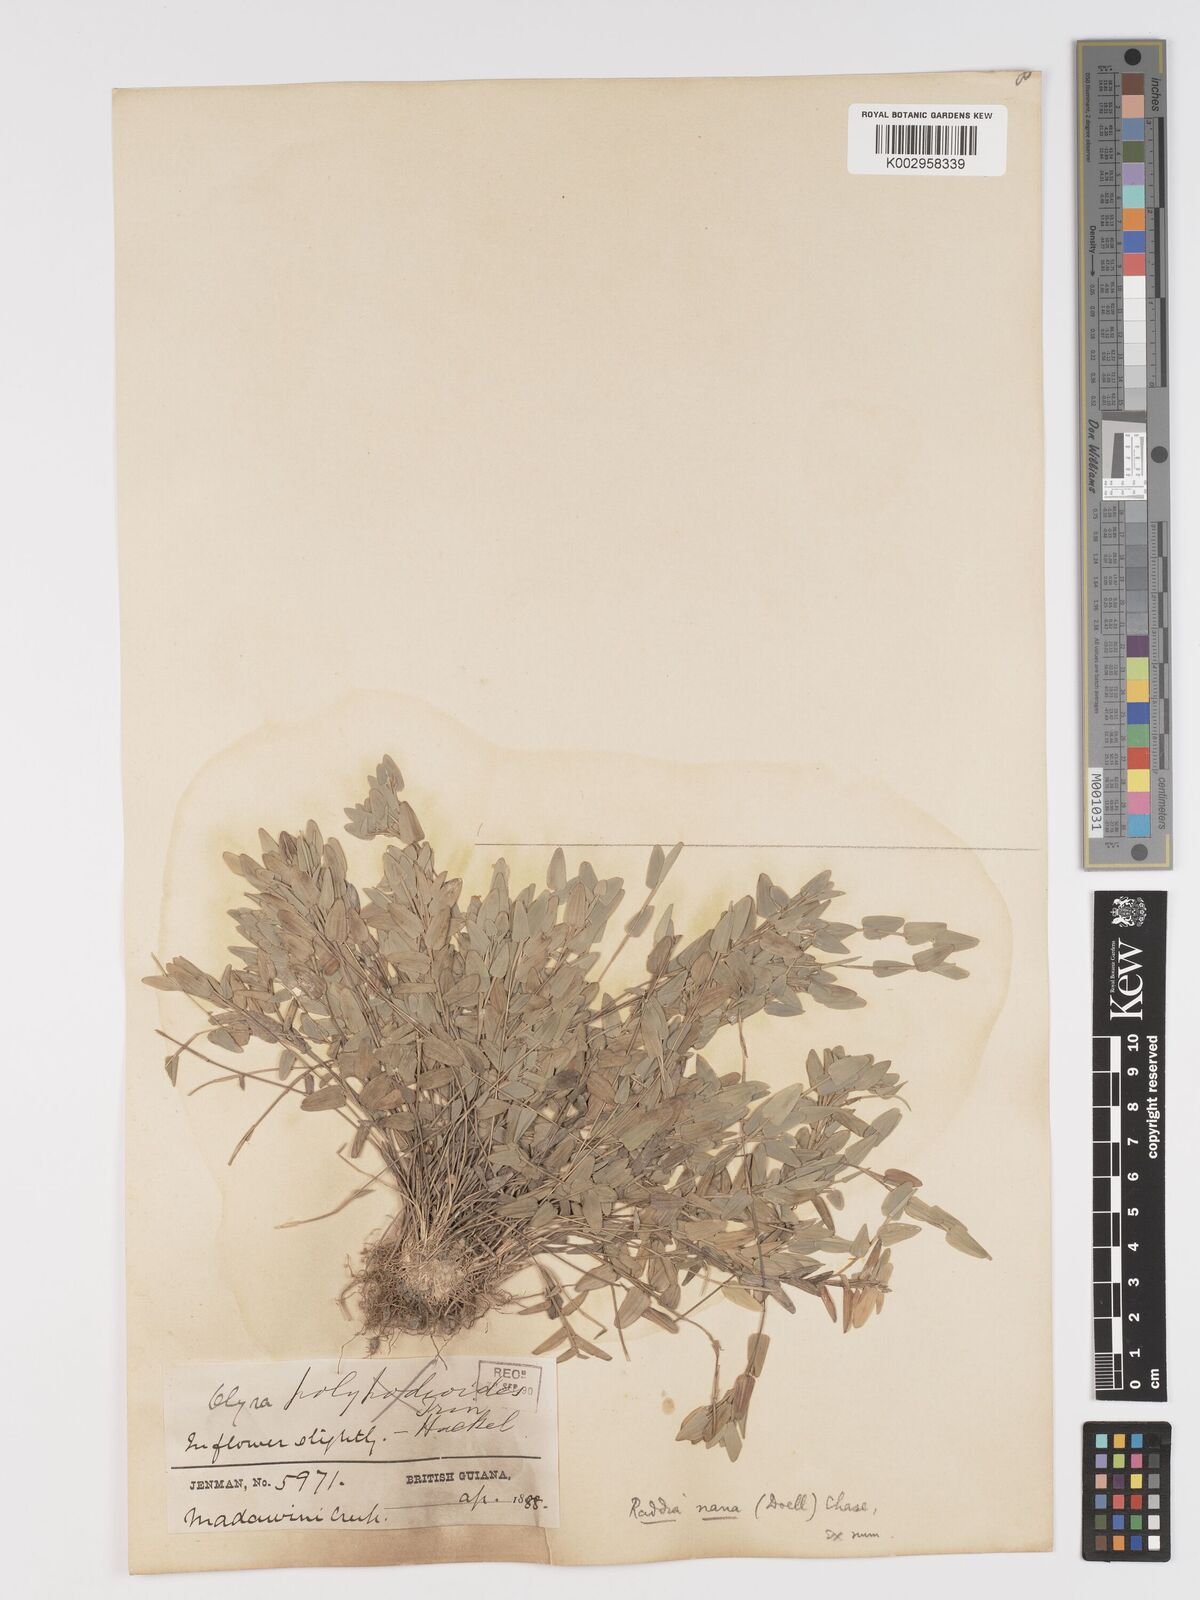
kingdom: Plantae
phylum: Tracheophyta
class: Liliopsida
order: Poales
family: Poaceae
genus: Raddiella
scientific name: Raddiella esenbeckii
